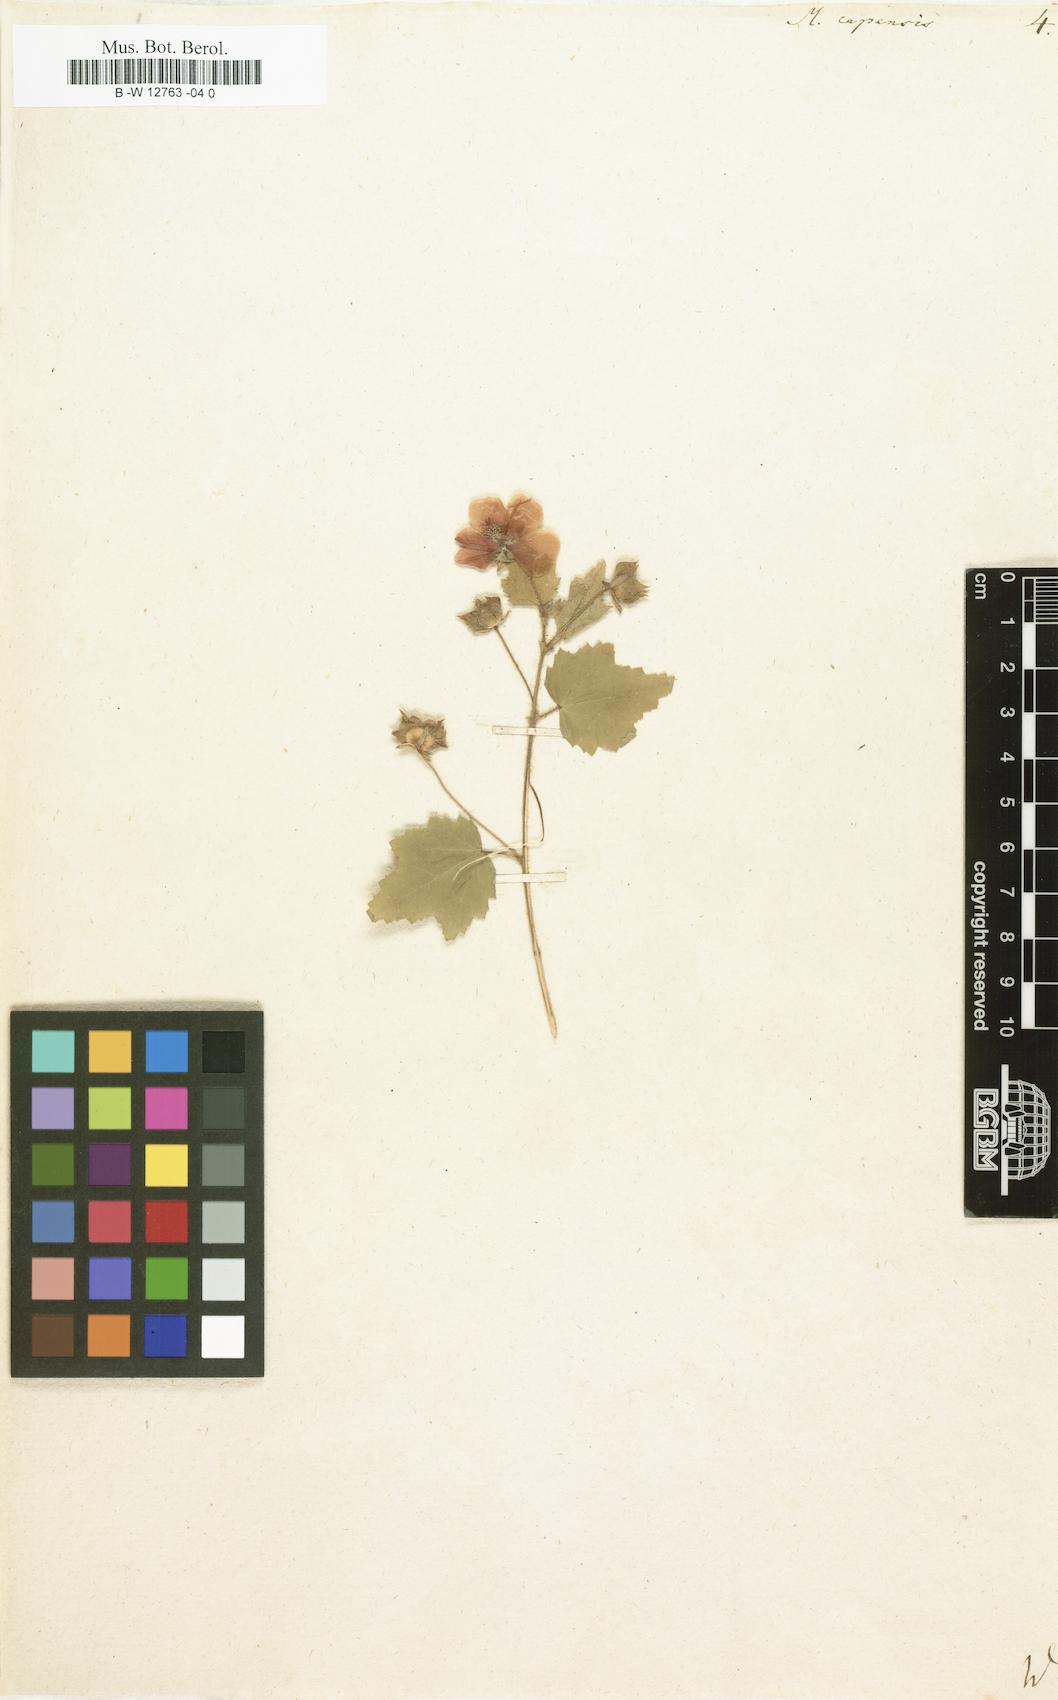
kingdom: Plantae
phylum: Tracheophyta
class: Magnoliopsida
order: Malvales
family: Malvaceae
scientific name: Malvaceae
